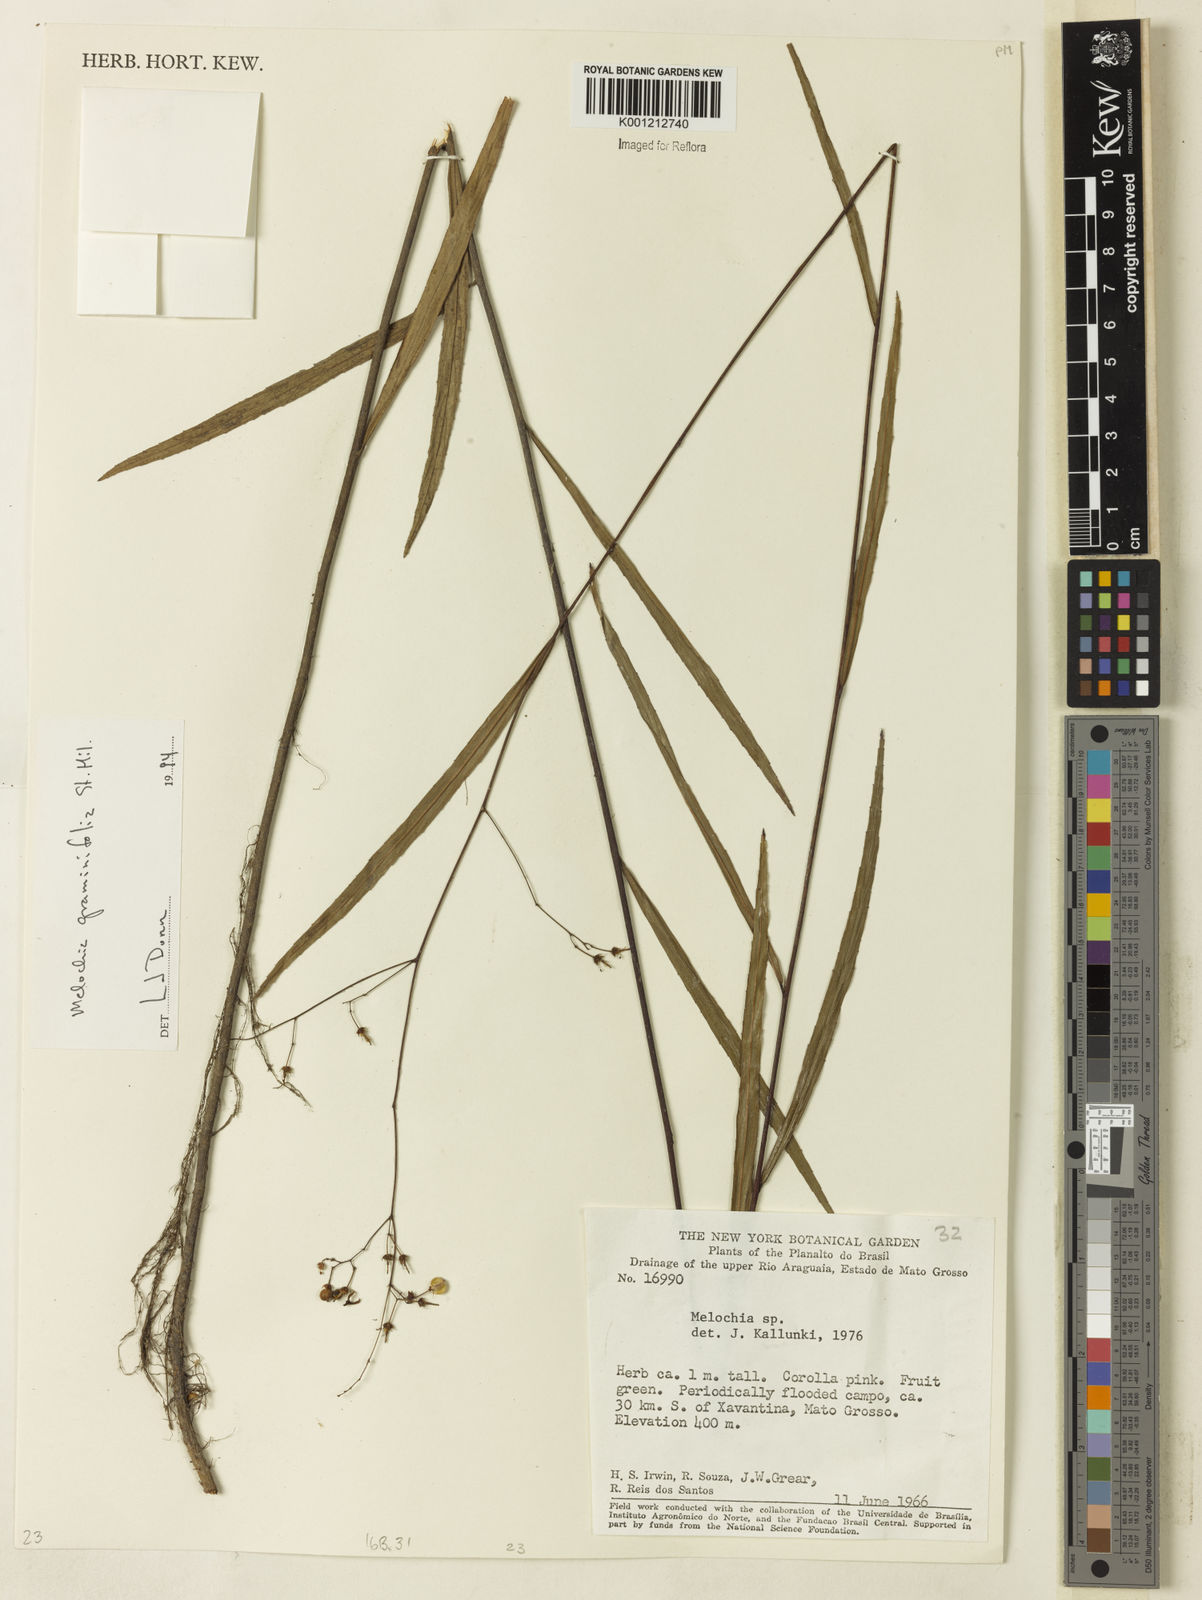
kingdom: Plantae
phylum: Tracheophyta
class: Magnoliopsida
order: Malvales
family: Malvaceae
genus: Melochia
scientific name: Melochia graminifolia
